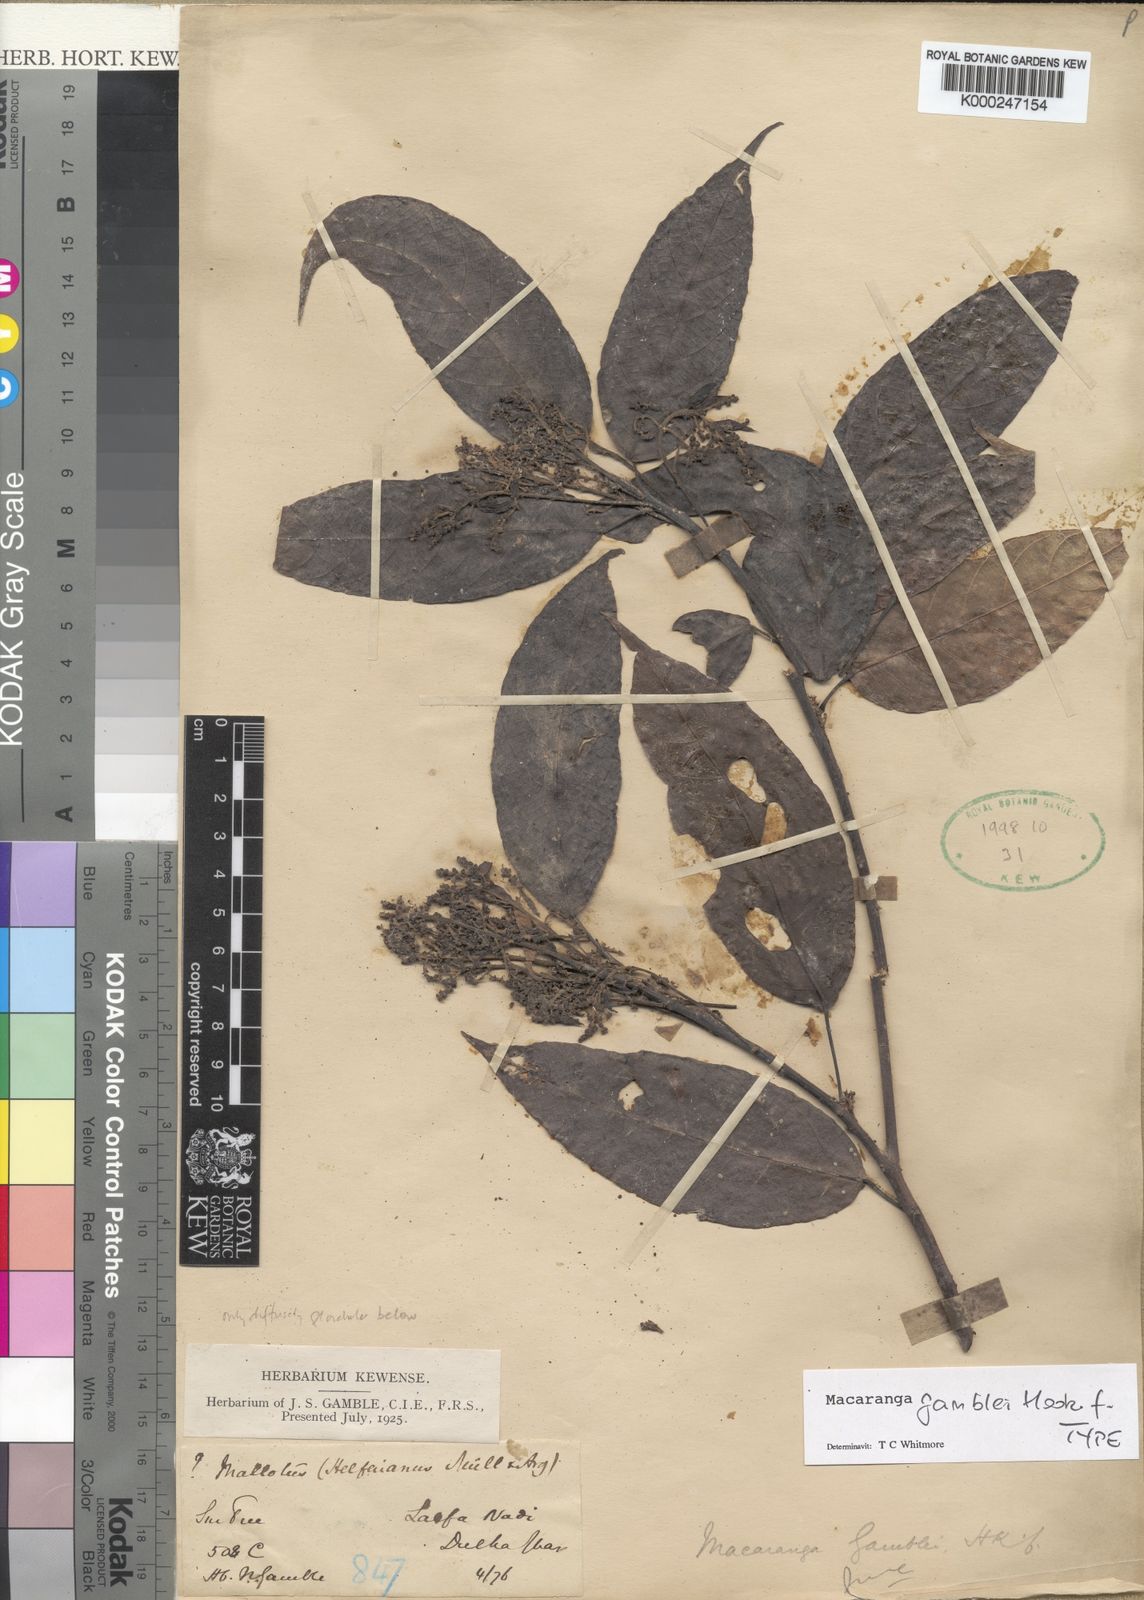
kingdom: Plantae
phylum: Tracheophyta
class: Magnoliopsida
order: Malpighiales
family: Euphorbiaceae
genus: Macaranga
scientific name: Macaranga gamblei
